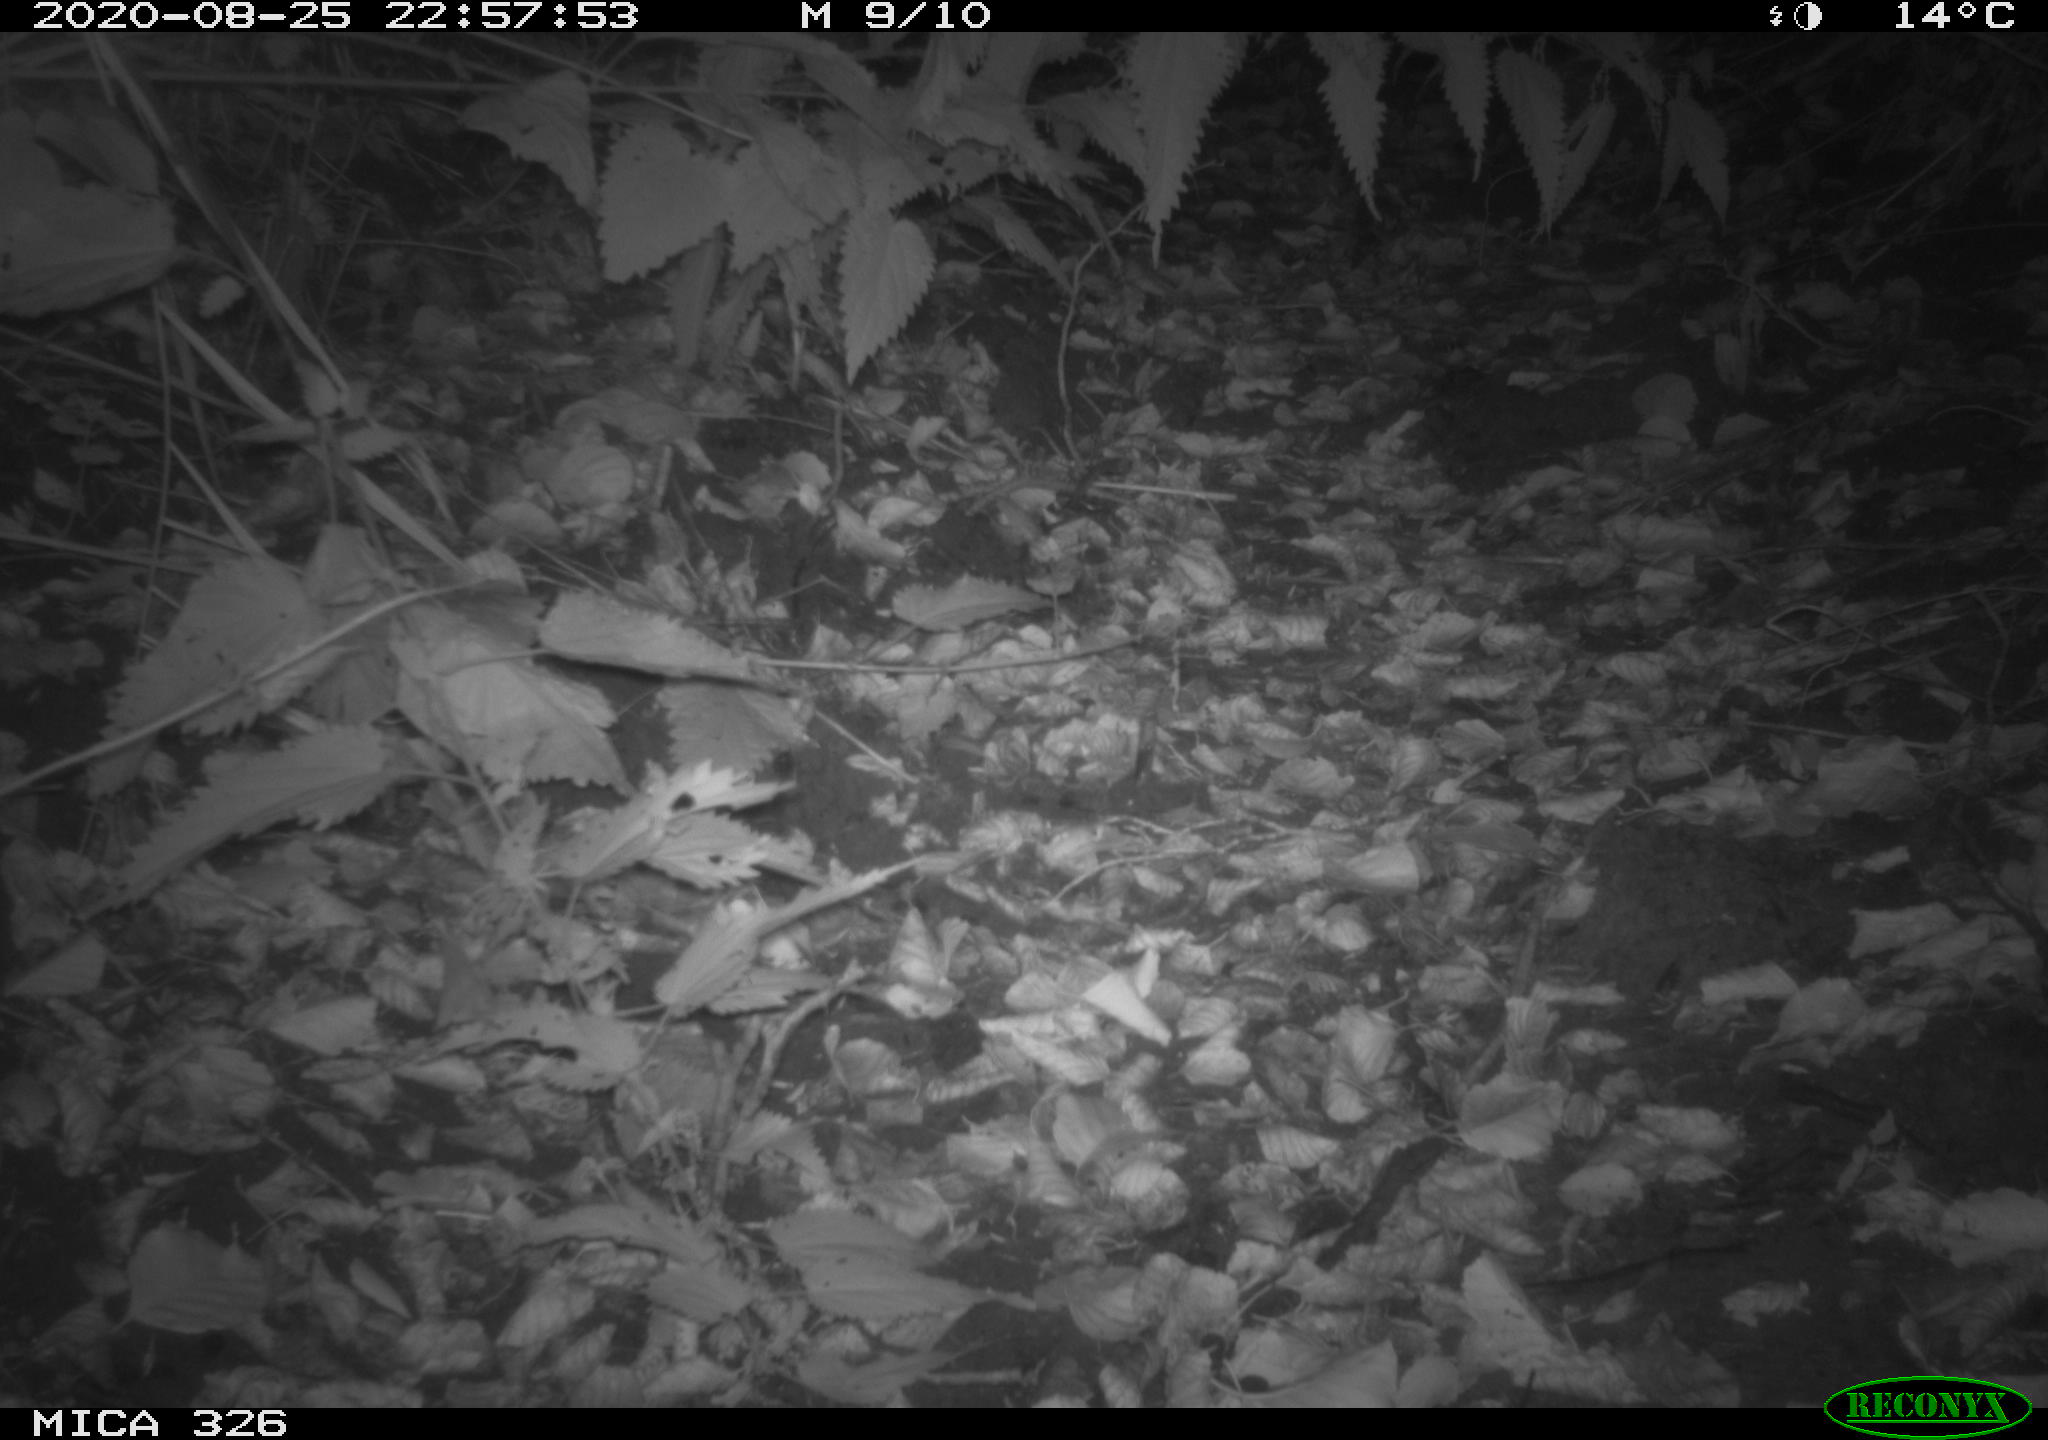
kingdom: Animalia
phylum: Chordata
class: Mammalia
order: Rodentia
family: Muridae
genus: Rattus
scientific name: Rattus norvegicus
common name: Brown rat
